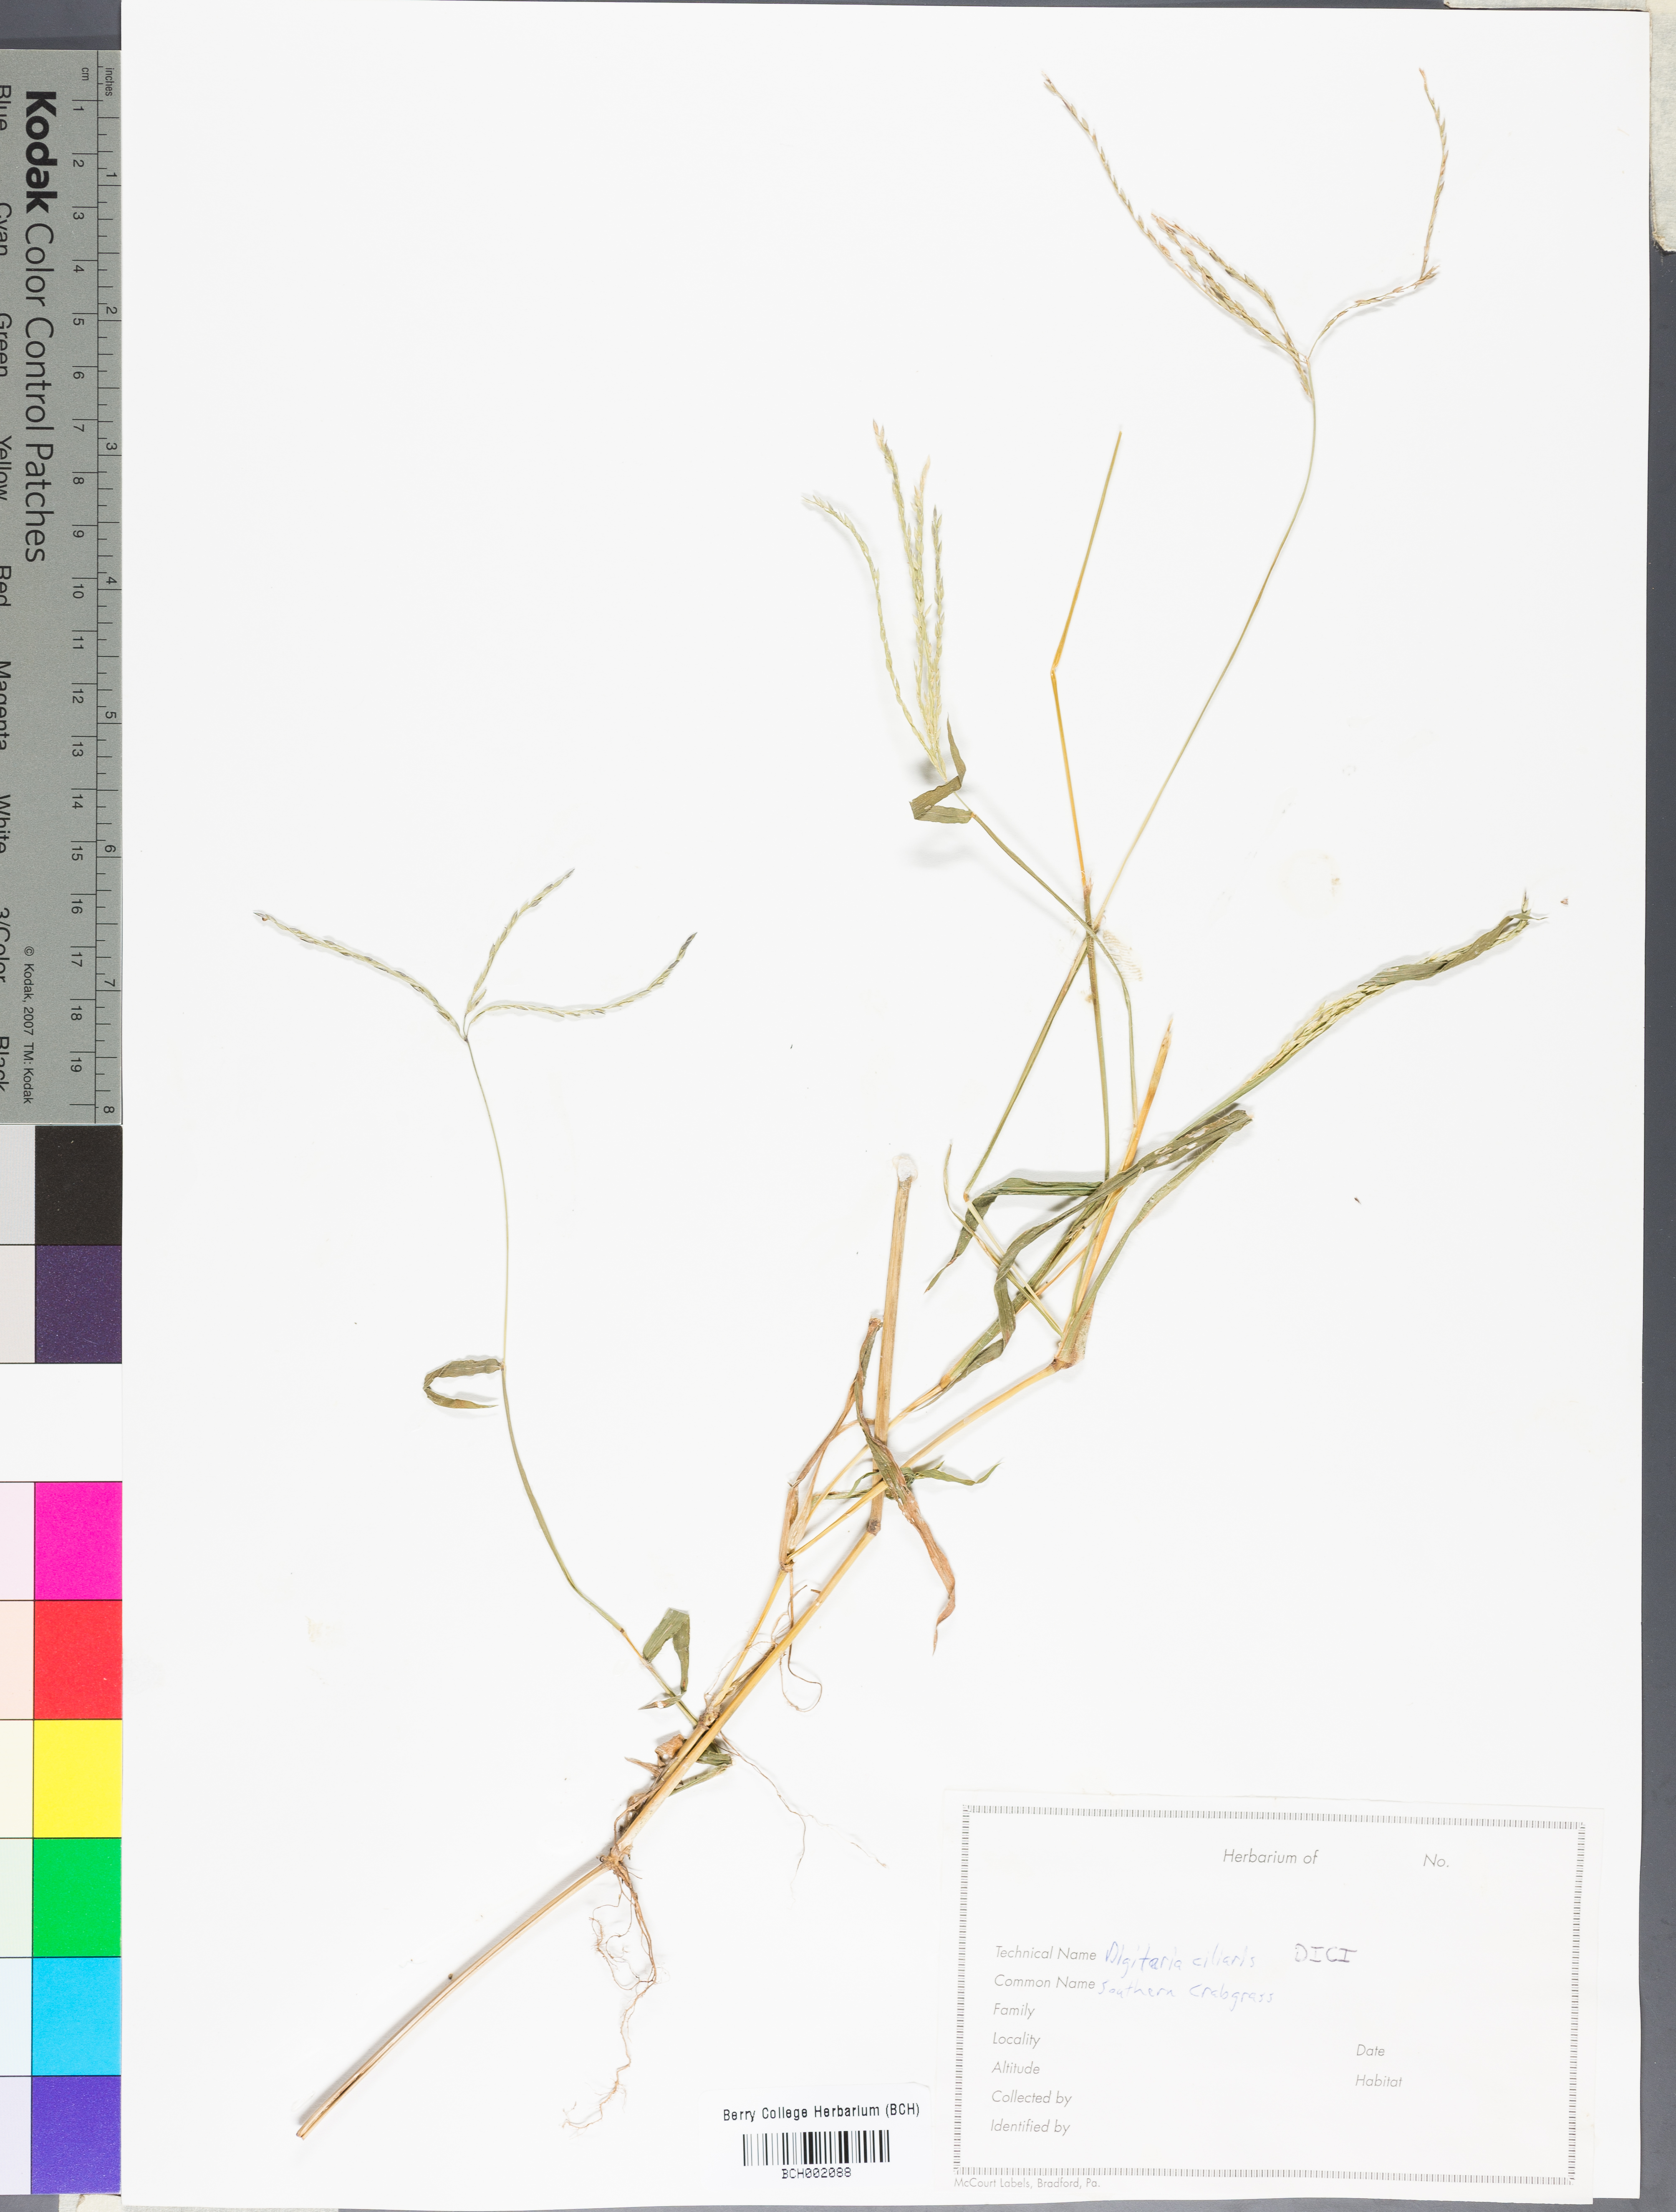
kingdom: Plantae
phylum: Tracheophyta
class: Liliopsida
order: Poales
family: Poaceae
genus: Digitaria
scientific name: Digitaria ciliaris
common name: Tropical finger-grass
